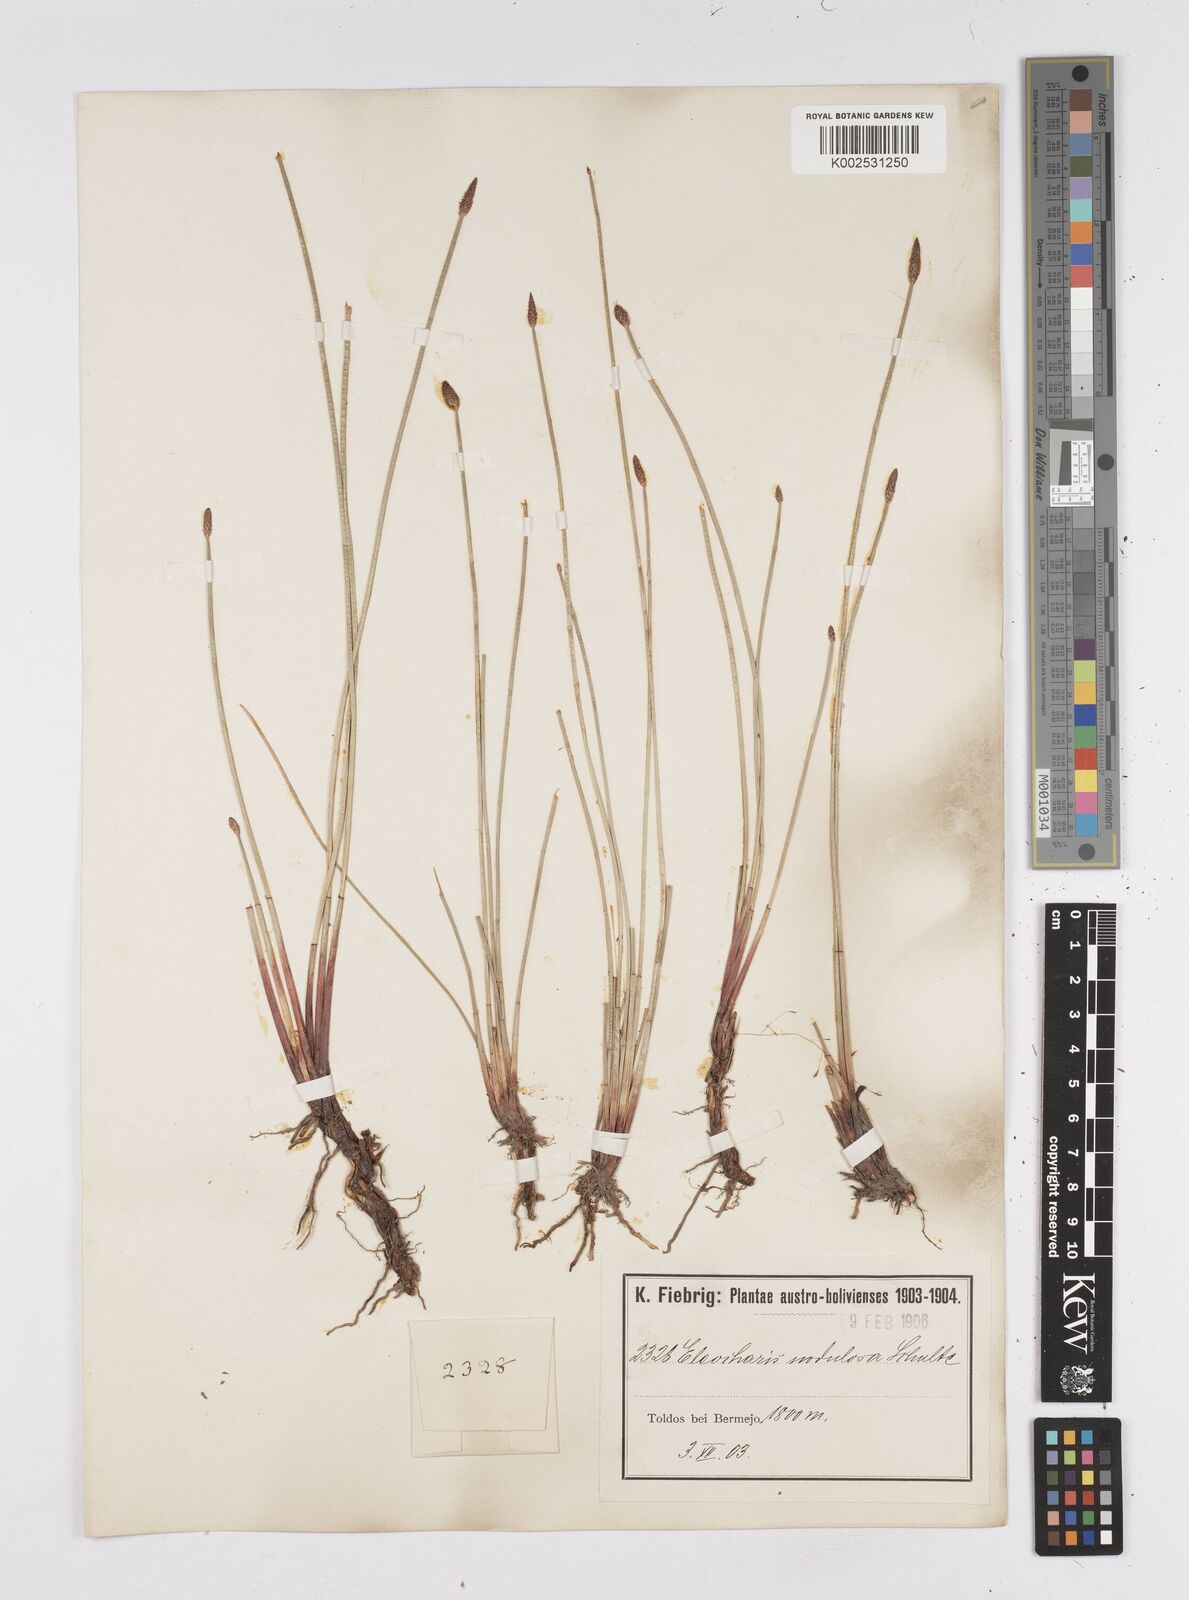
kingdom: Plantae
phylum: Tracheophyta
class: Liliopsida
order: Poales
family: Cyperaceae
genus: Eleocharis
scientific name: Eleocharis montana
